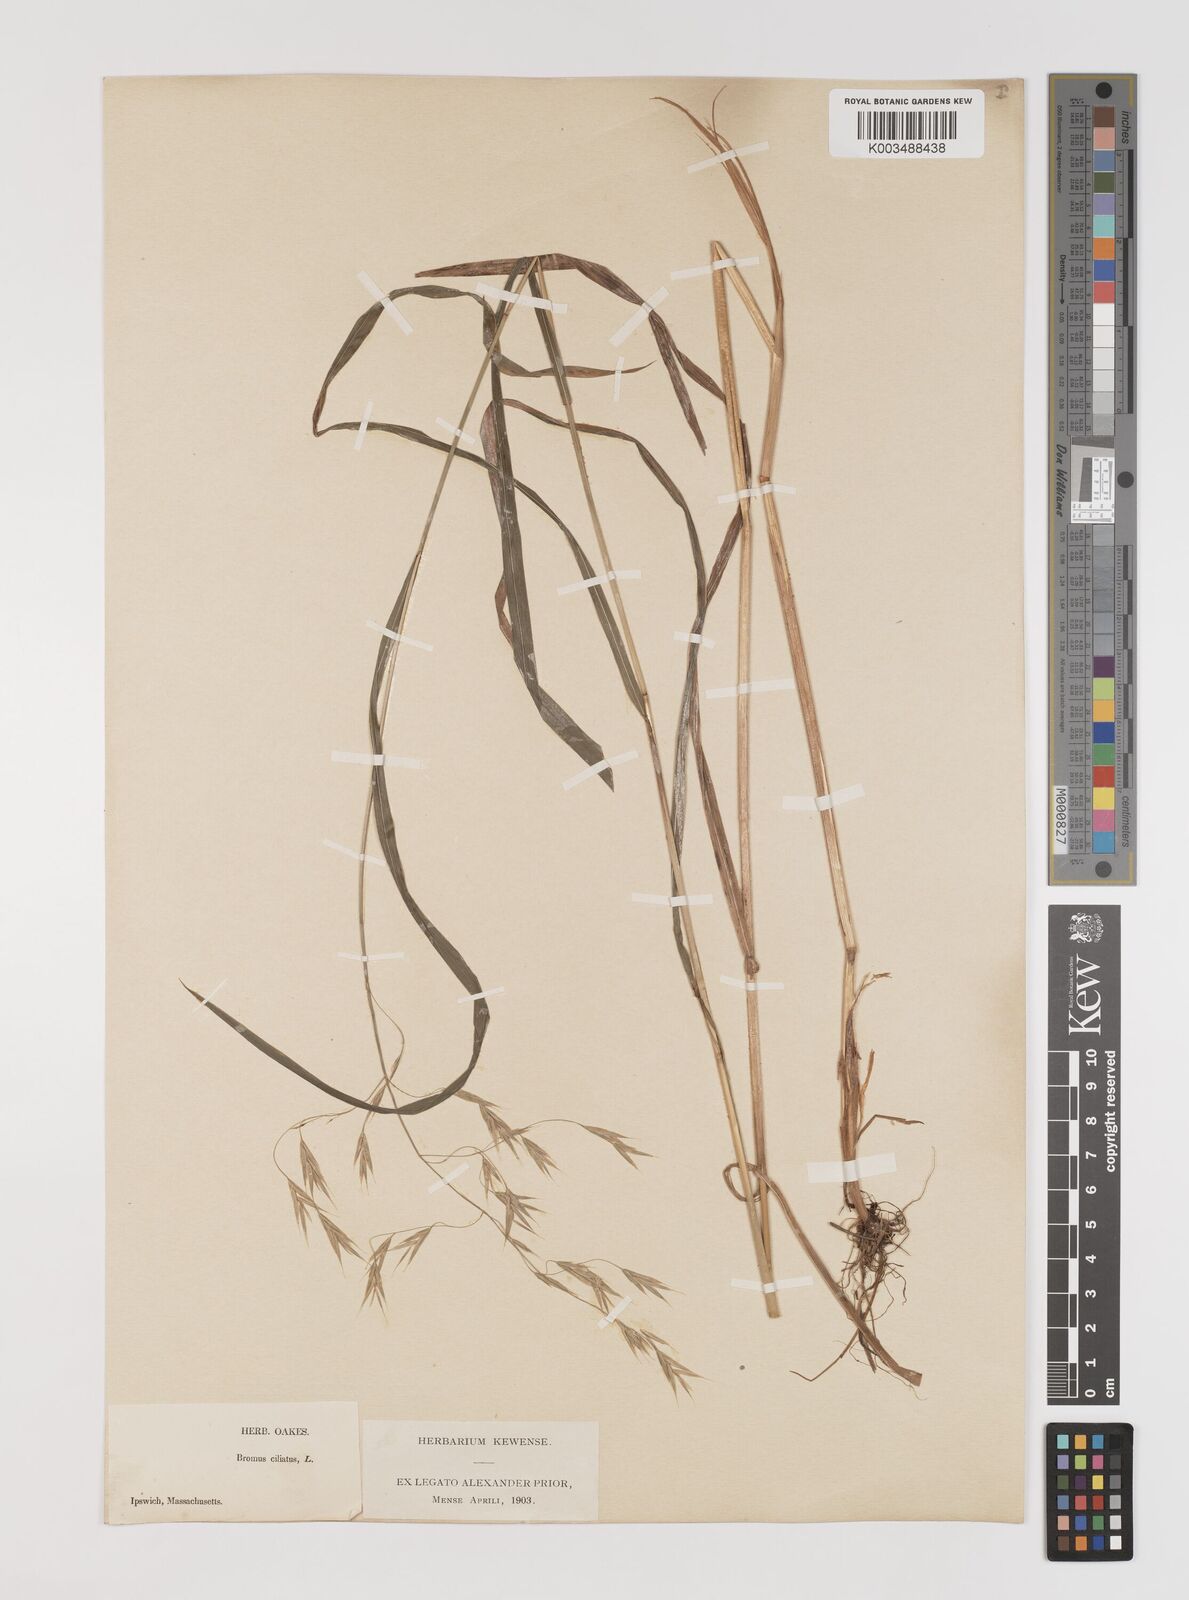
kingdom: Plantae
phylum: Tracheophyta
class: Liliopsida
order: Poales
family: Poaceae
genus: Bromus
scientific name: Bromus ciliatus
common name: Fringe brome
